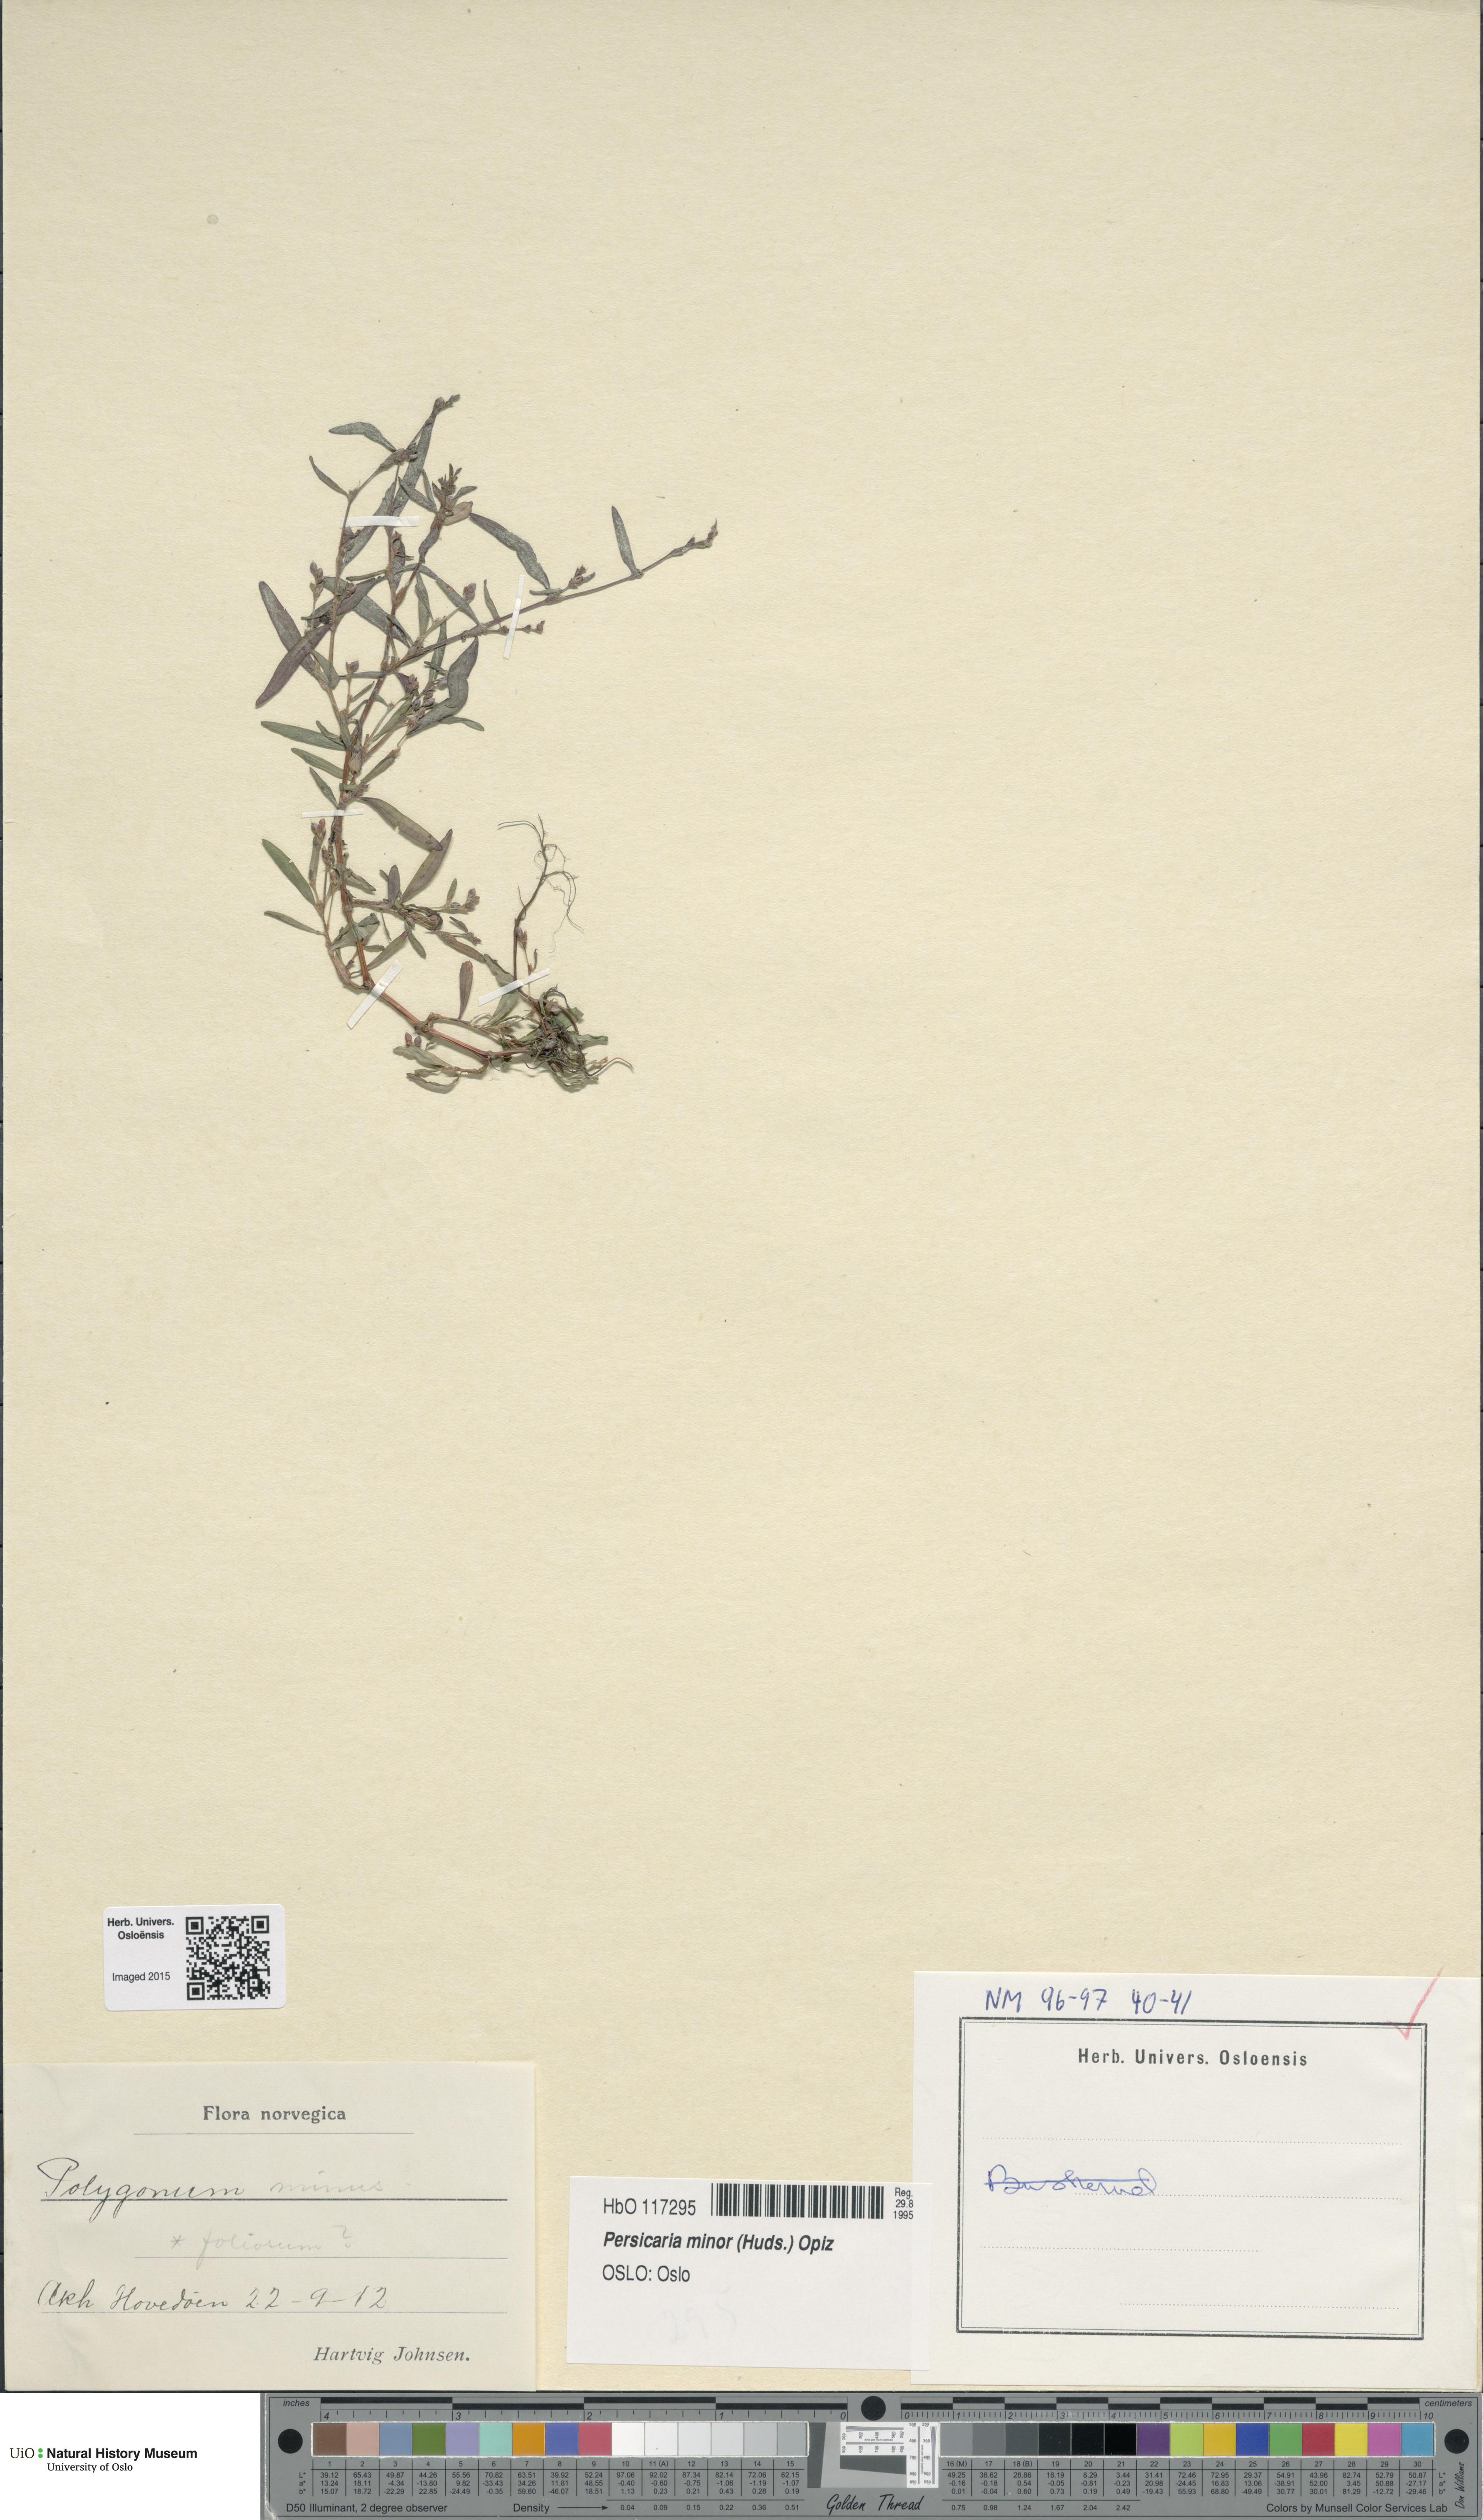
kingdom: Plantae
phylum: Tracheophyta
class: Magnoliopsida
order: Caryophyllales
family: Polygonaceae
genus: Persicaria
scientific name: Persicaria minor
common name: Small water-pepper
